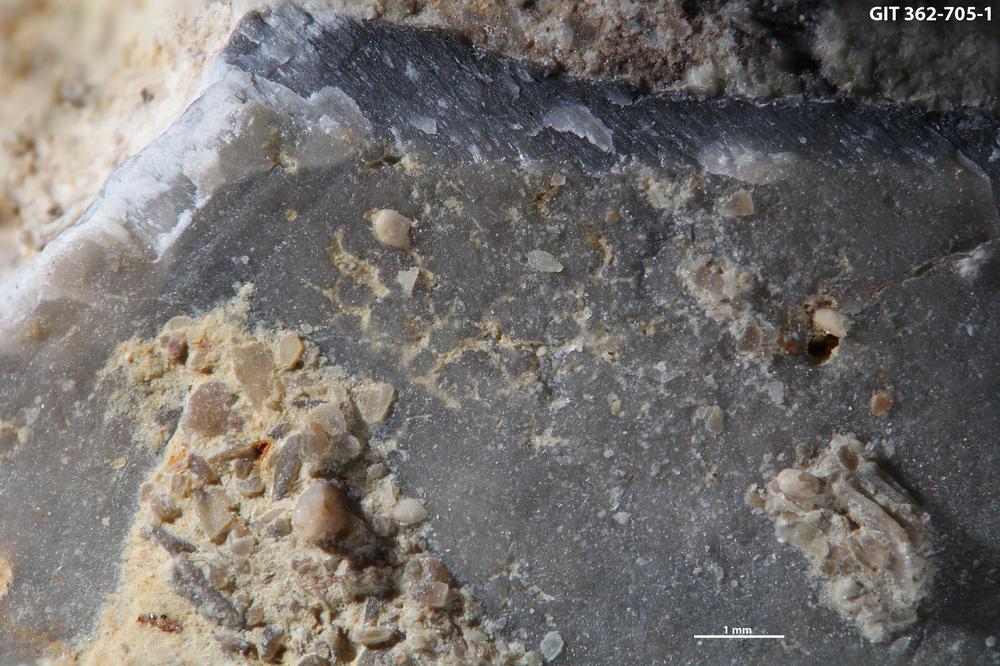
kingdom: Animalia
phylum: Brachiopoda
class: Rhynchonellata
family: Porambonitidae
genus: Porambonites
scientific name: Porambonites
